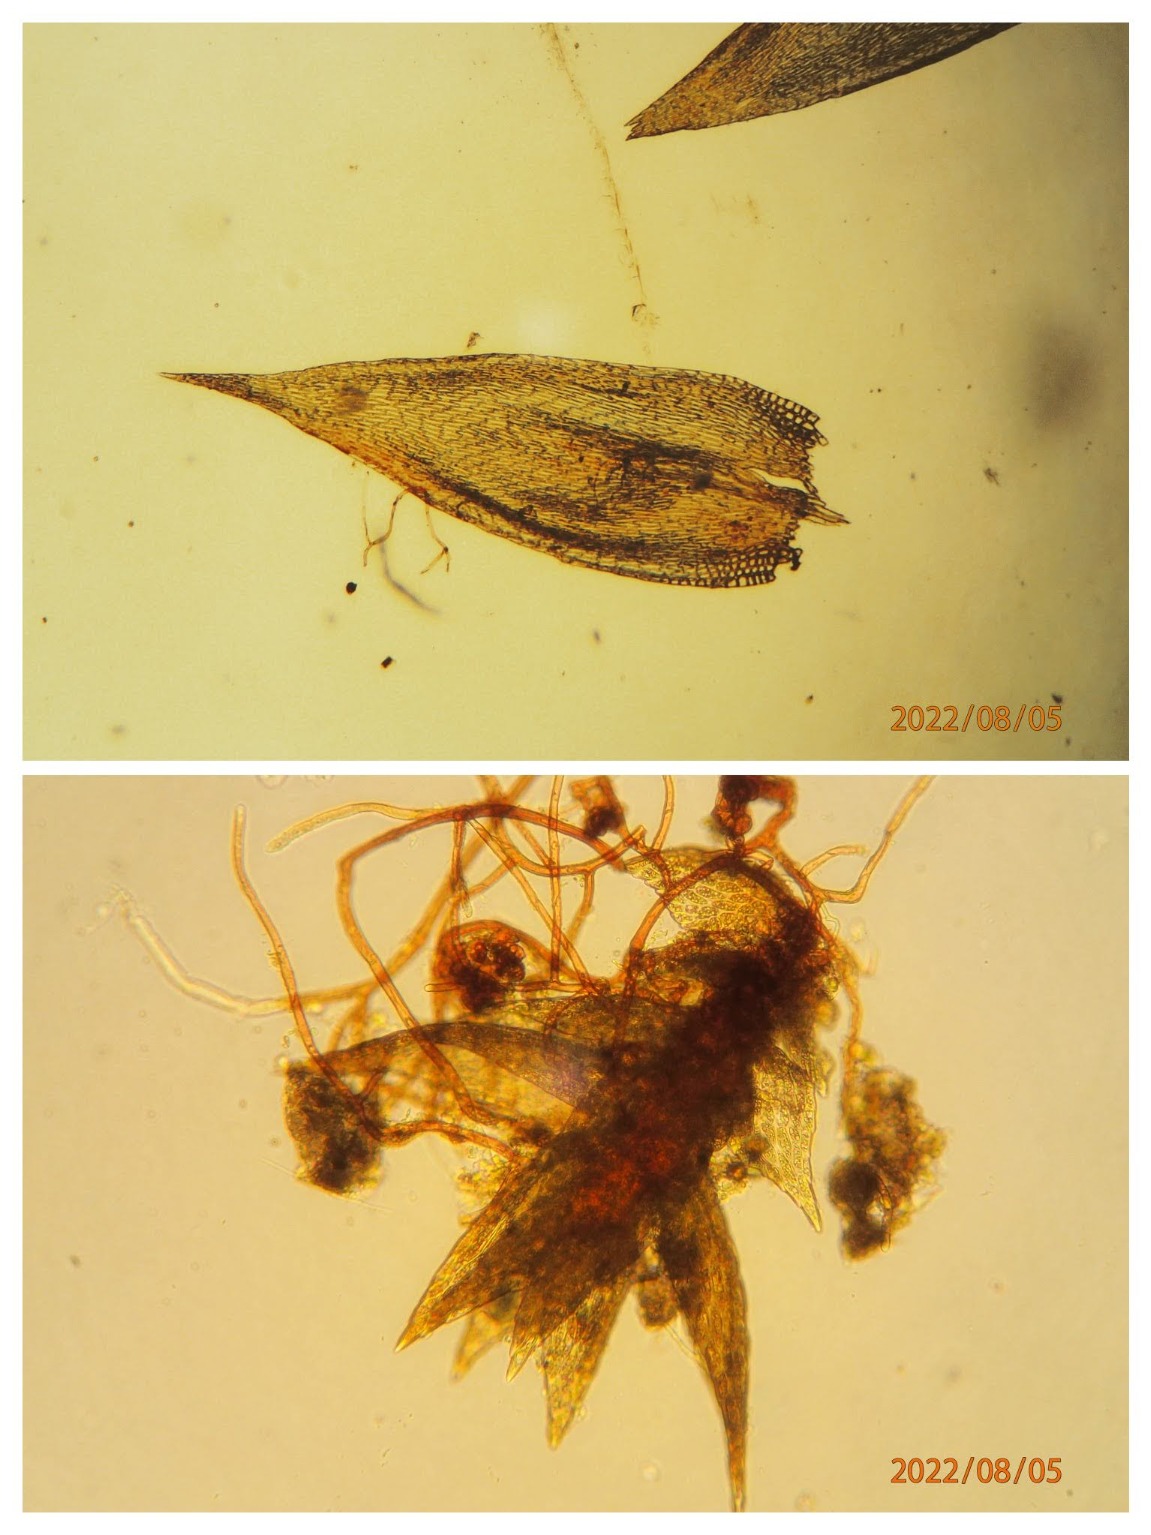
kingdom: Plantae
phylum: Bryophyta
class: Bryopsida
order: Hypnales
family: Pylaisiadelphaceae
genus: Platygyrium
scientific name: Platygyrium repens
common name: Mørk yngleknop
